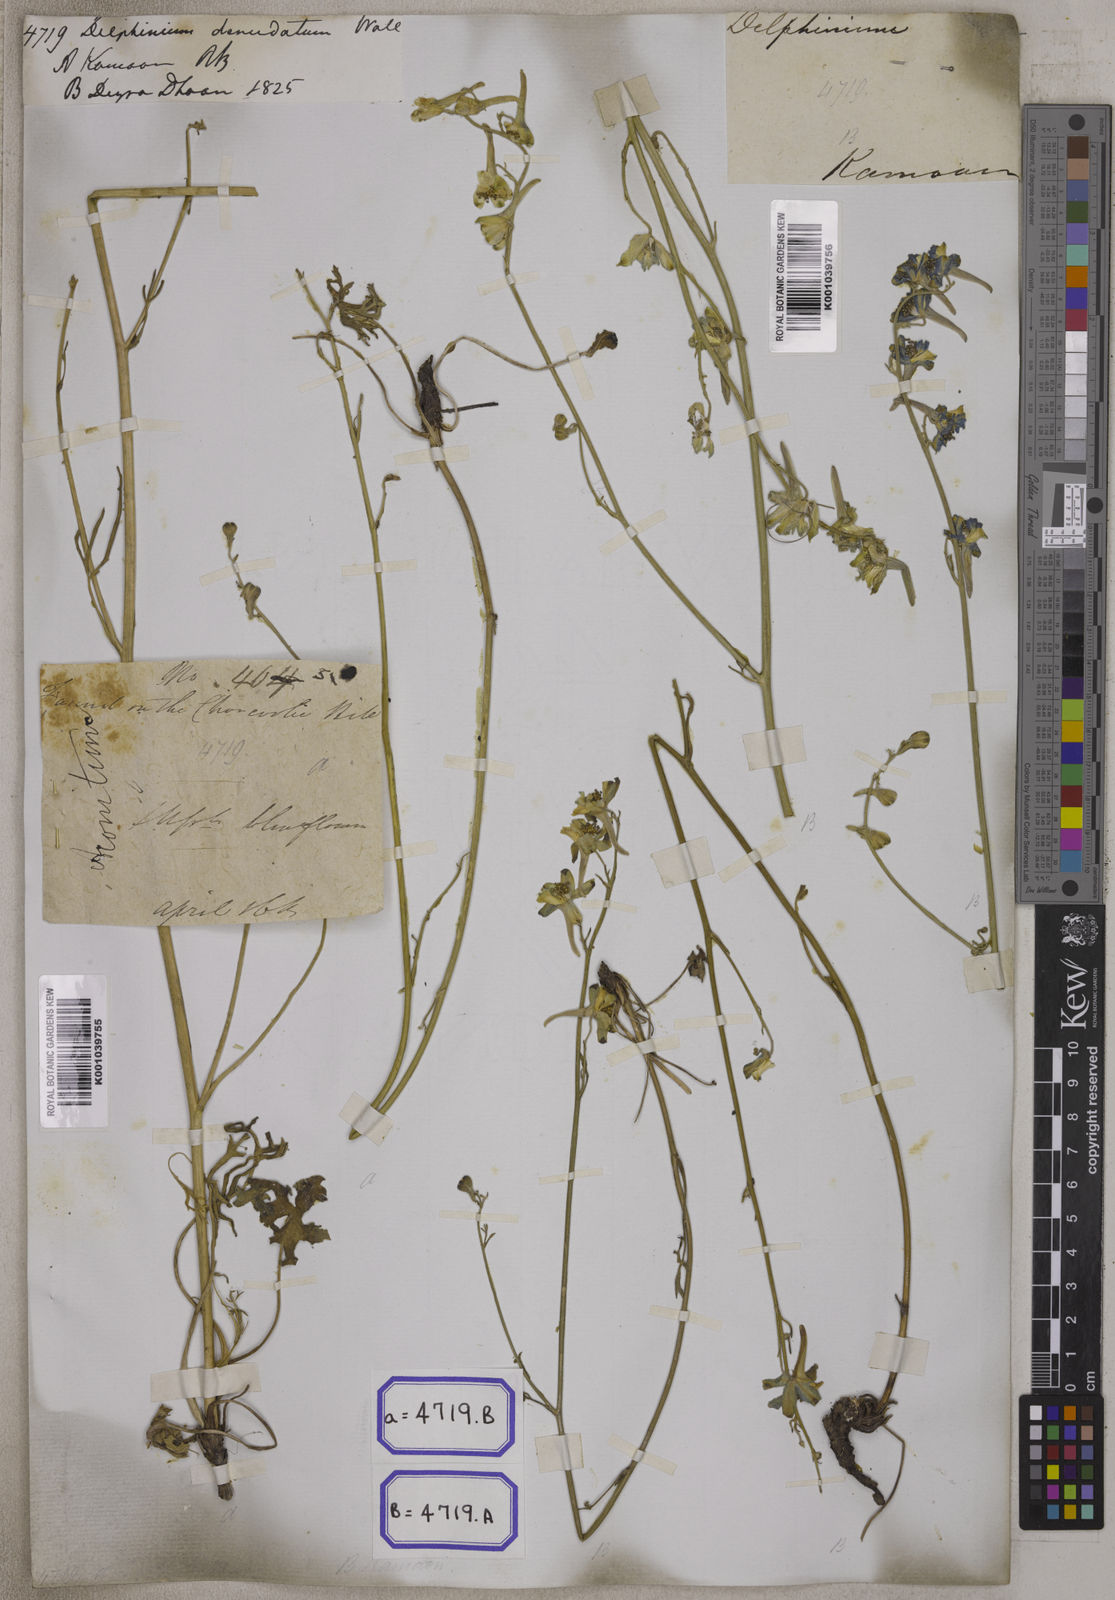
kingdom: Plantae
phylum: Tracheophyta
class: Magnoliopsida
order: Ranunculales
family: Ranunculaceae
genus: Delphinium
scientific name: Delphinium
